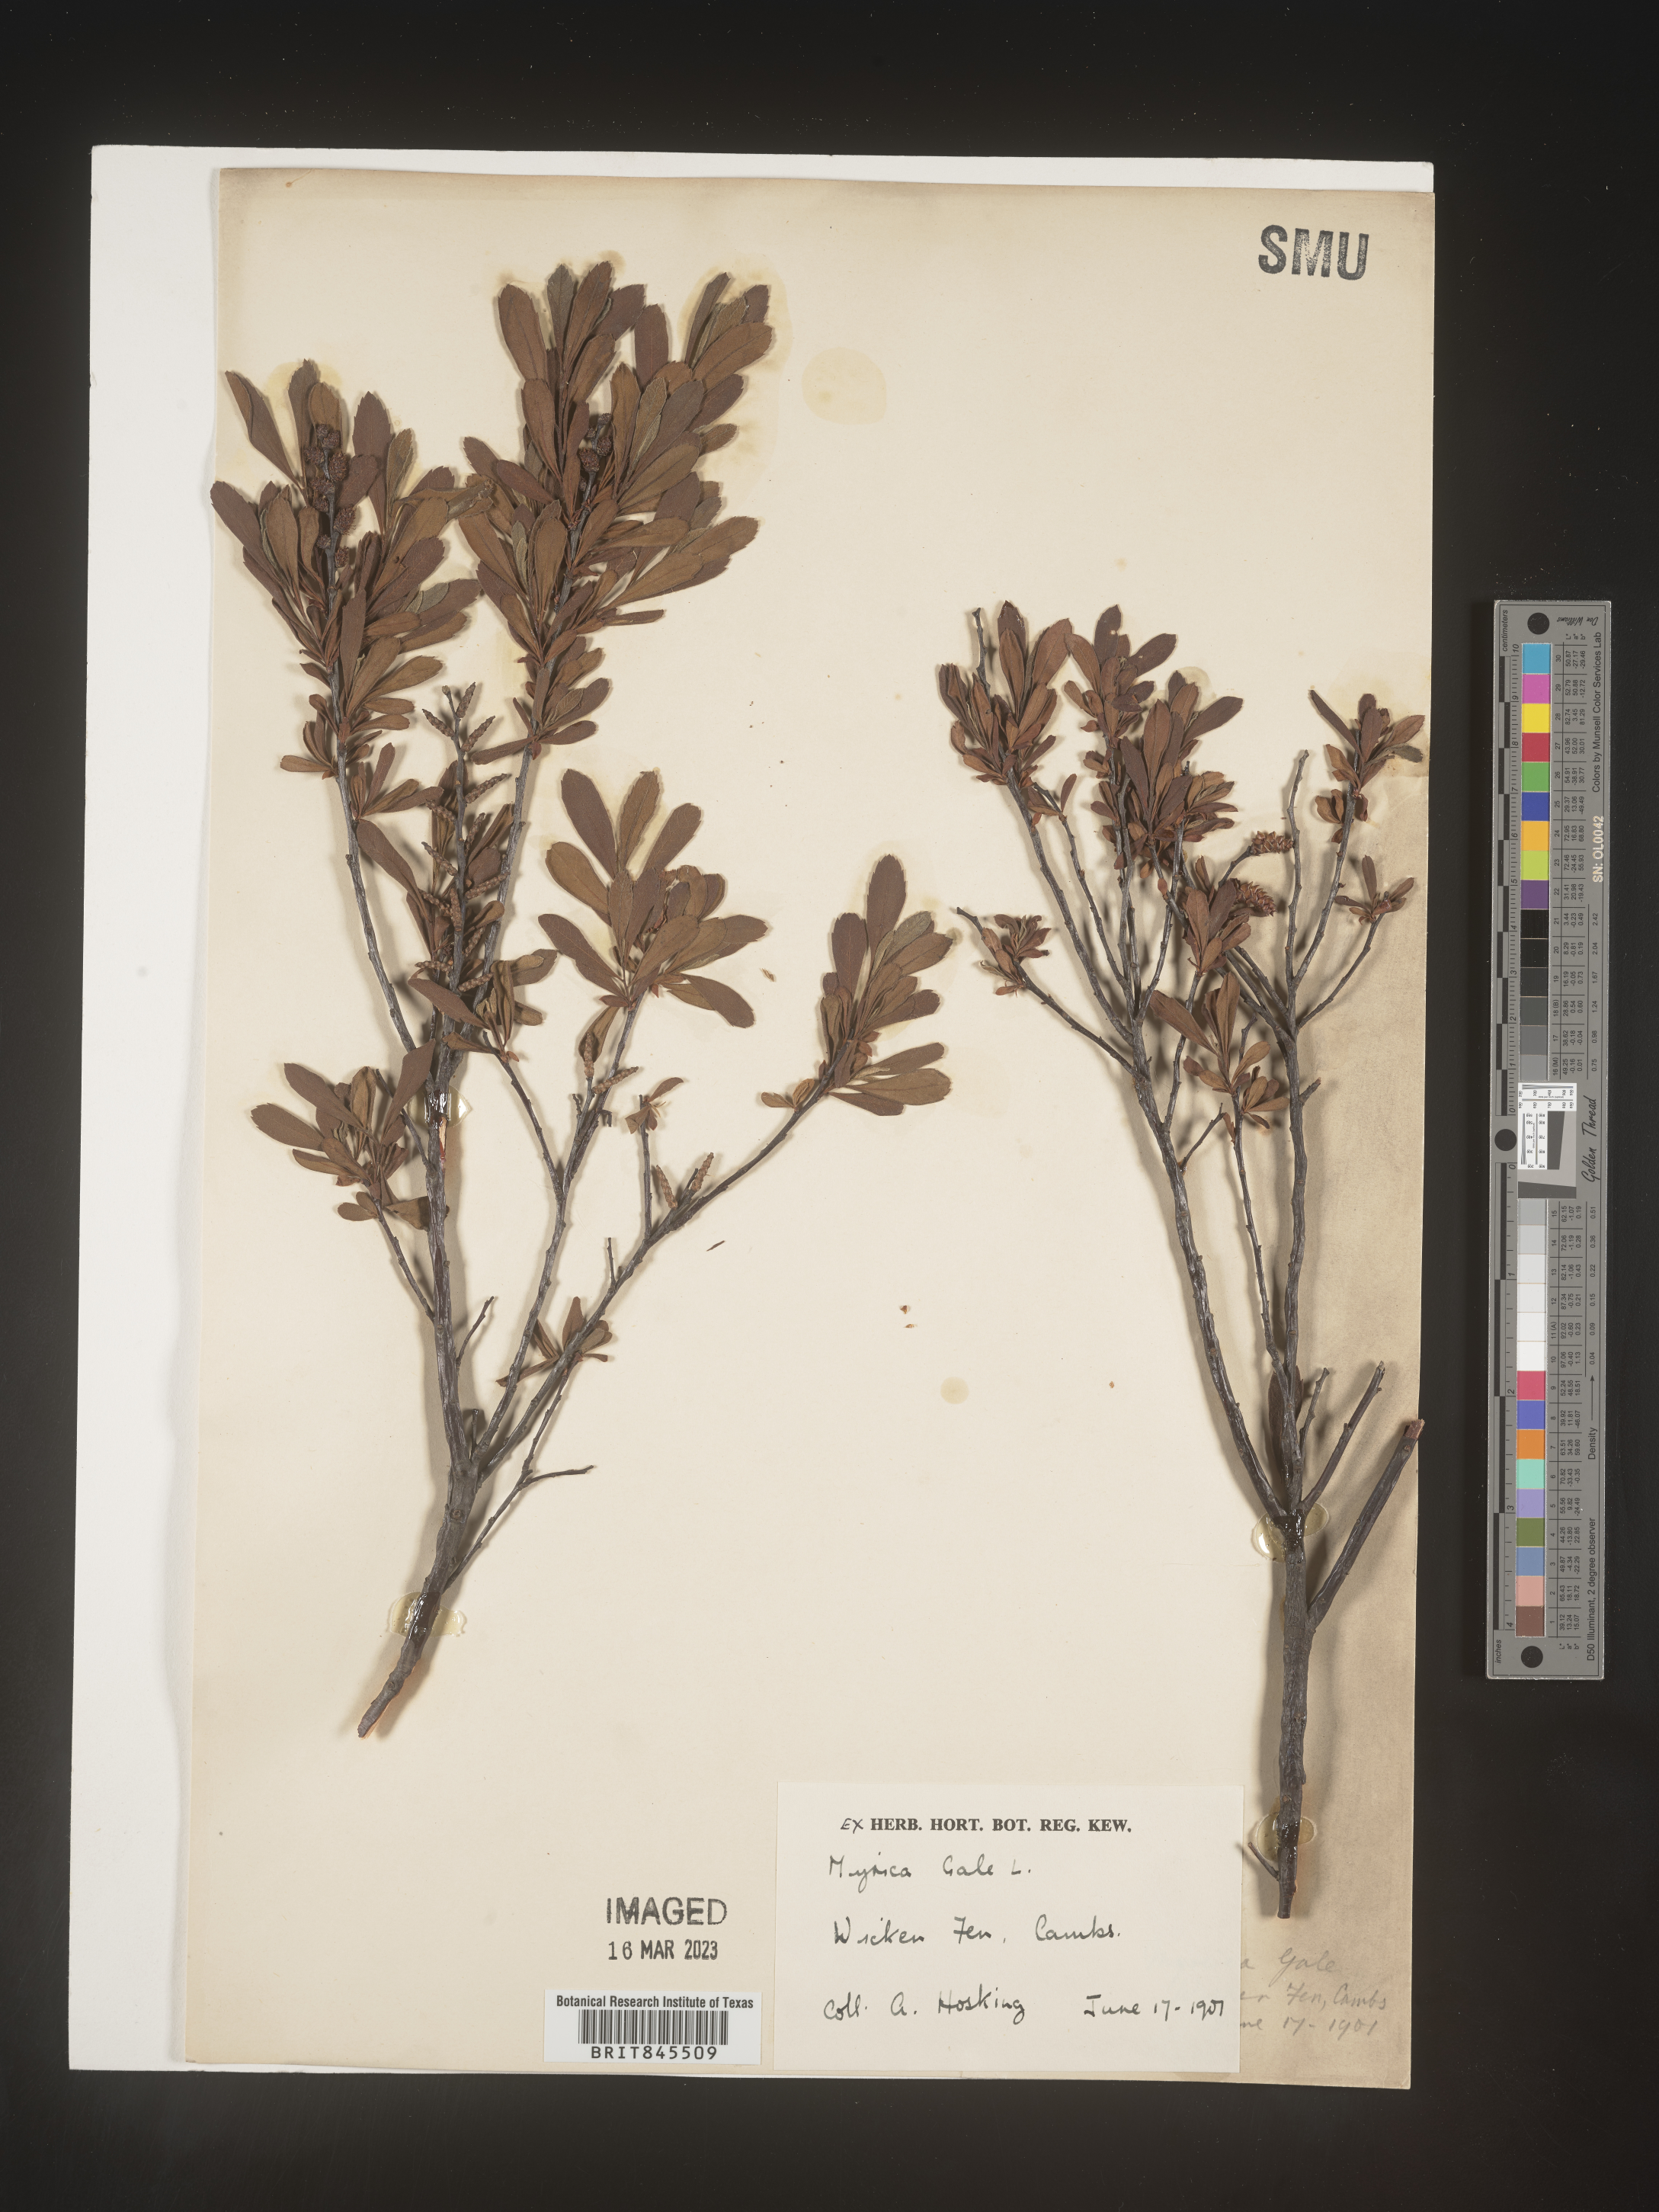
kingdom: Plantae
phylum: Tracheophyta
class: Magnoliopsida
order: Fagales
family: Myricaceae
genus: Myrica
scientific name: Myrica
